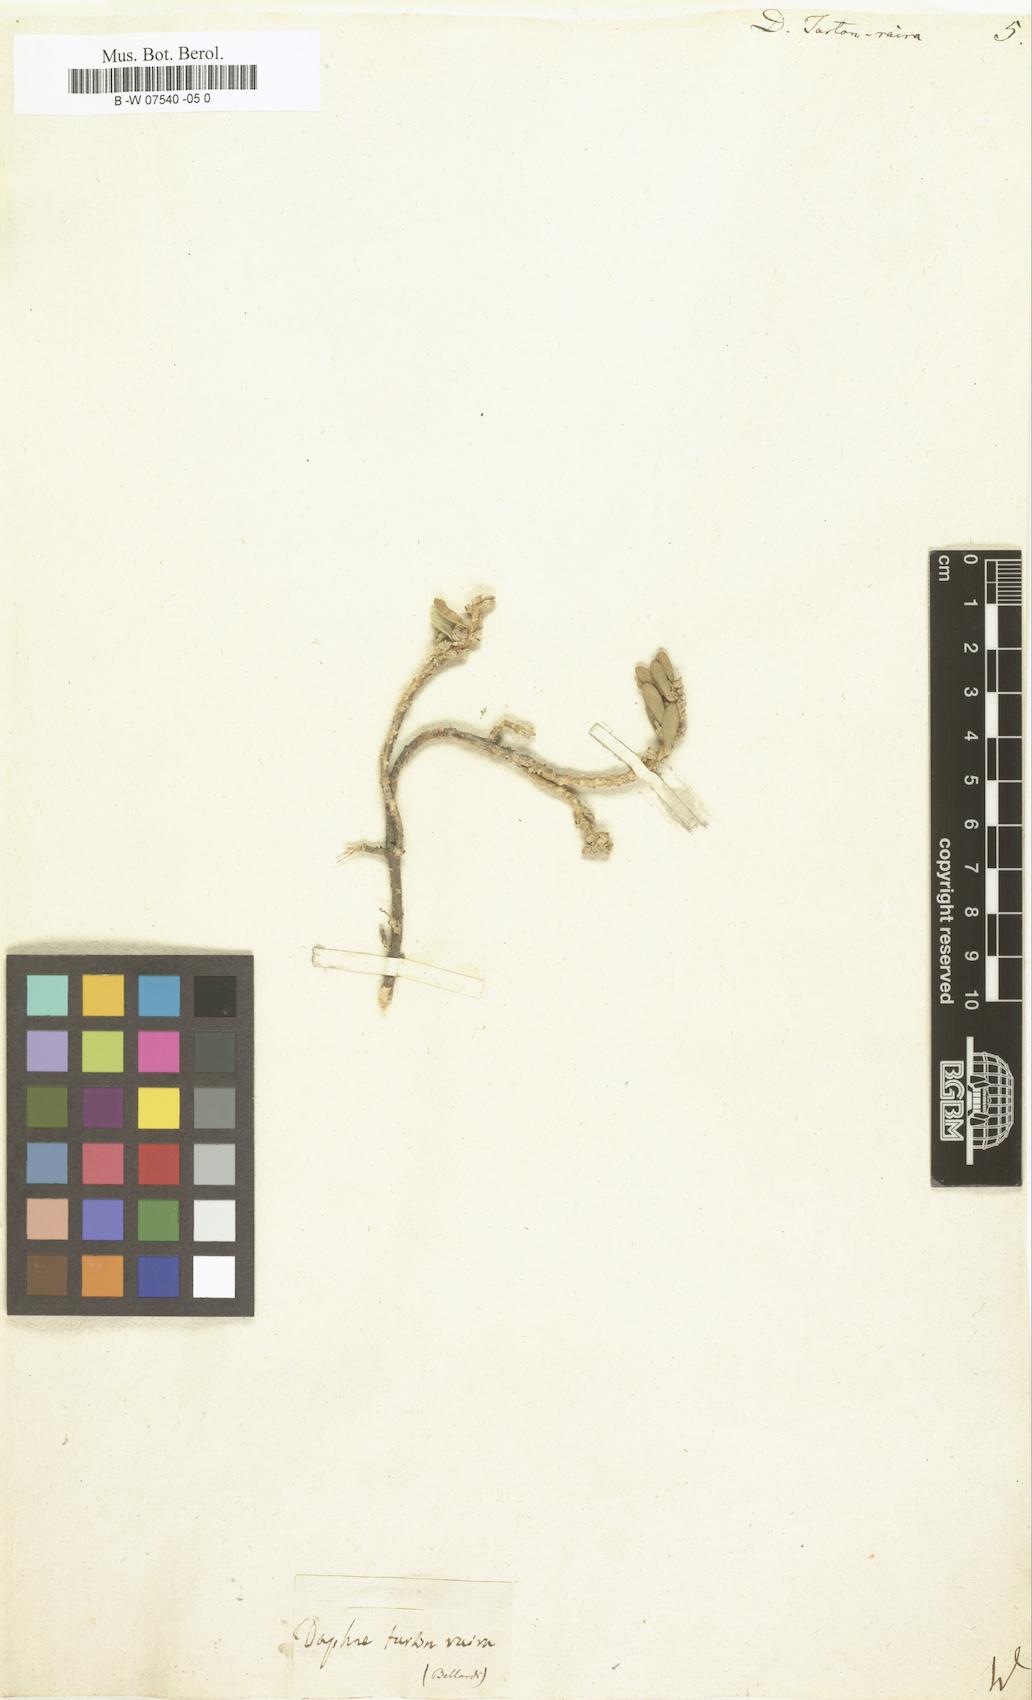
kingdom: Plantae
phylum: Tracheophyta
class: Magnoliopsida
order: Malvales
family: Thymelaeaceae
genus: Thymelaea
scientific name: Thymelaea tartonraira
